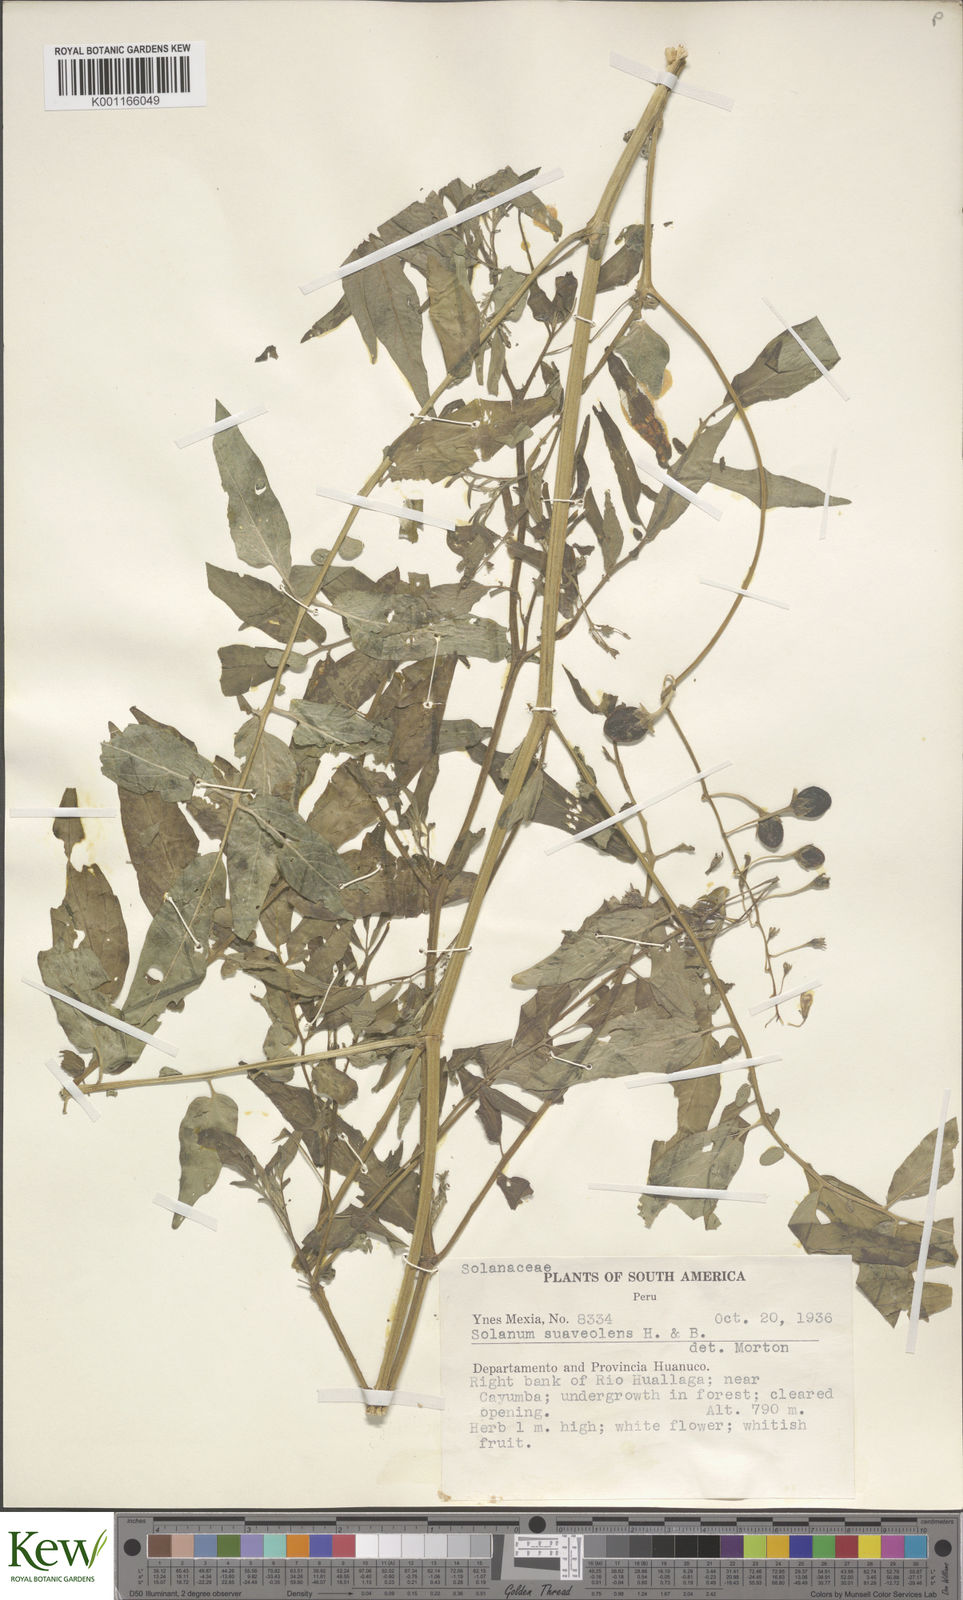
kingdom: Plantae
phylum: Tracheophyta
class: Magnoliopsida
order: Solanales
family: Solanaceae
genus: Solanum
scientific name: Solanum suaveolens
